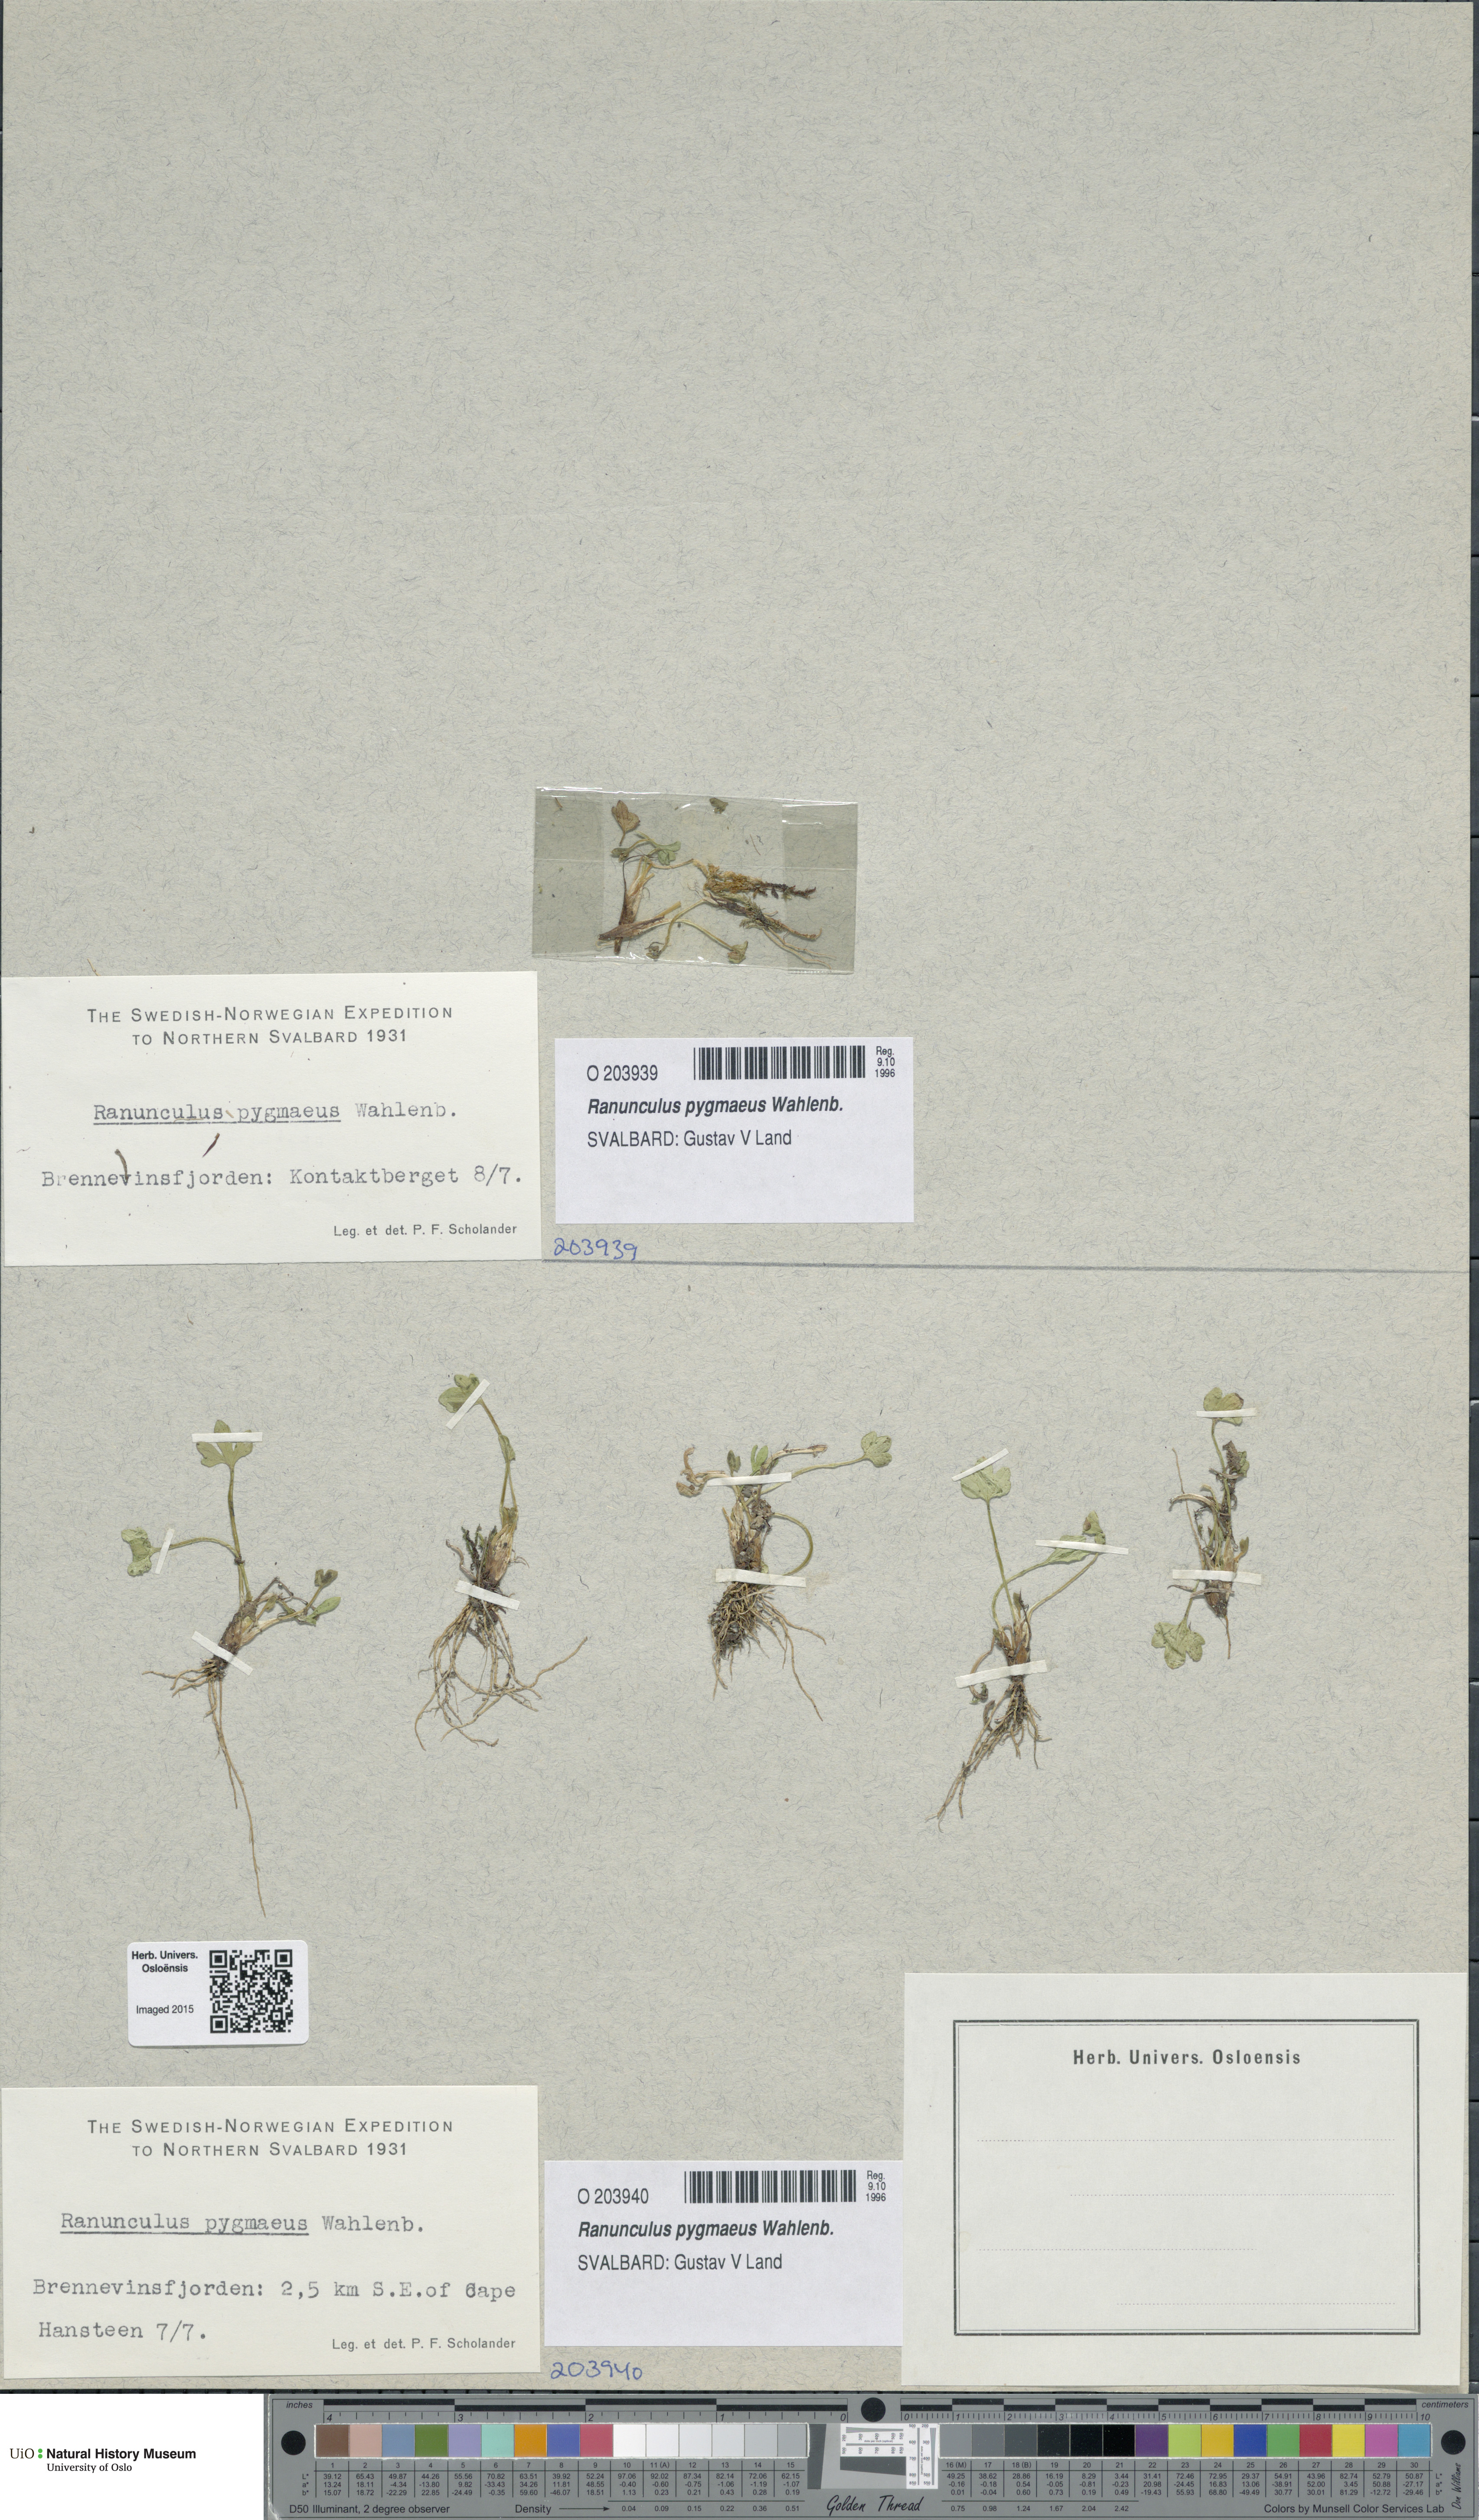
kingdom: Plantae
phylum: Tracheophyta
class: Magnoliopsida
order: Ranunculales
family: Ranunculaceae
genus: Ranunculus
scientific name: Ranunculus pygmaeus
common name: Dwarf buttercup
